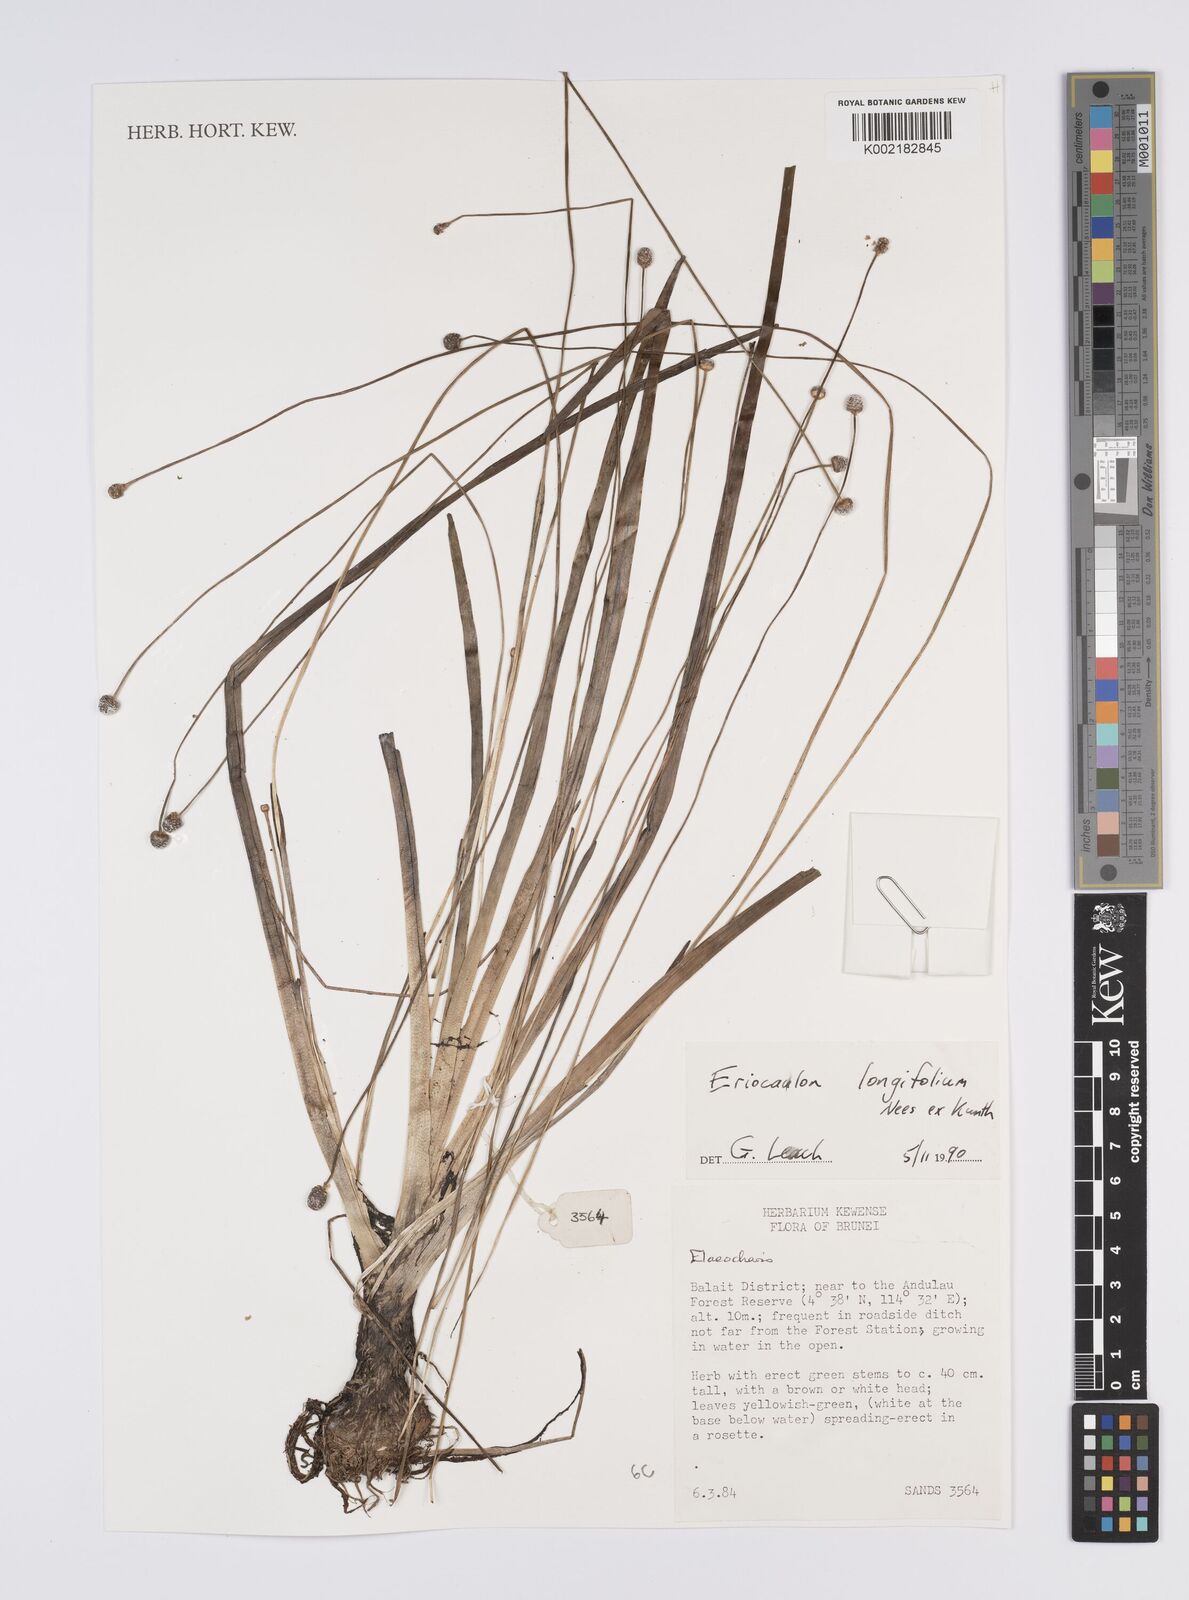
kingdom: Plantae
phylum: Tracheophyta
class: Liliopsida
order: Poales
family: Eriocaulaceae
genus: Eriocaulon
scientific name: Eriocaulon willdenovianum
